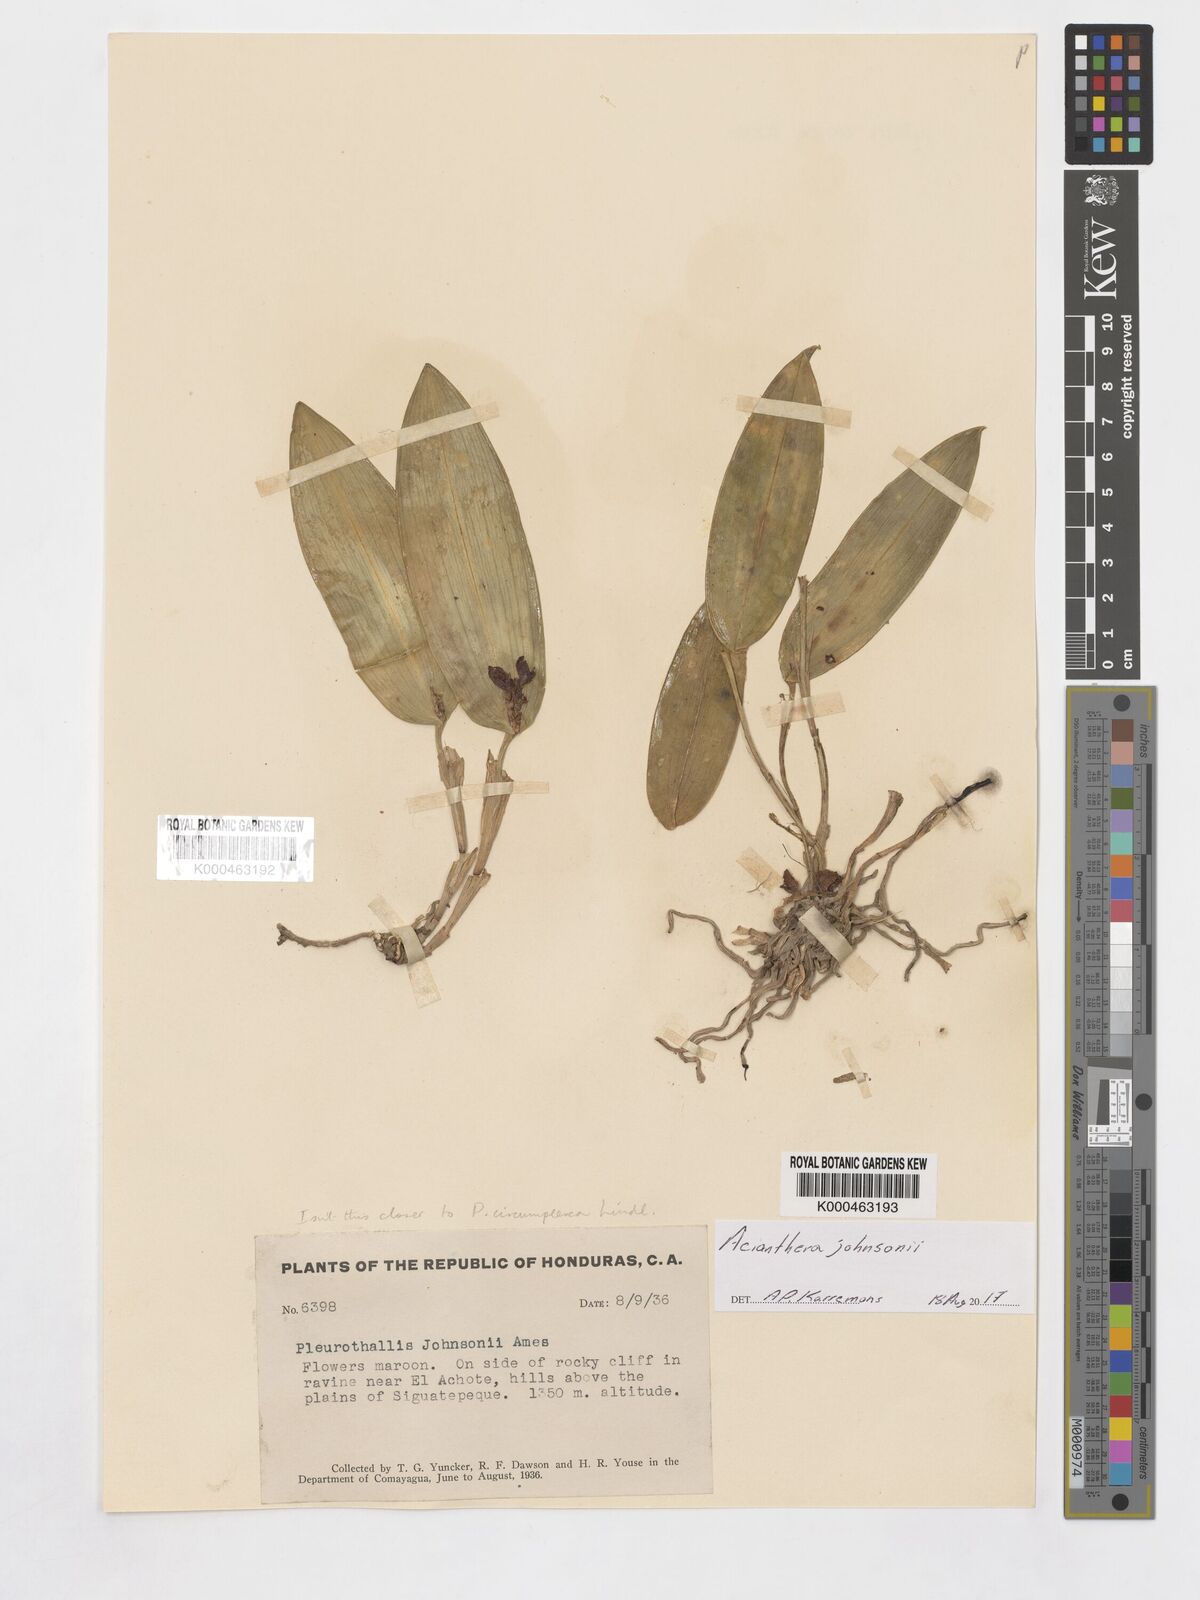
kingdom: Plantae
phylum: Tracheophyta
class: Liliopsida
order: Asparagales
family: Orchidaceae
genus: Acianthera
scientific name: Acianthera johnsonii
